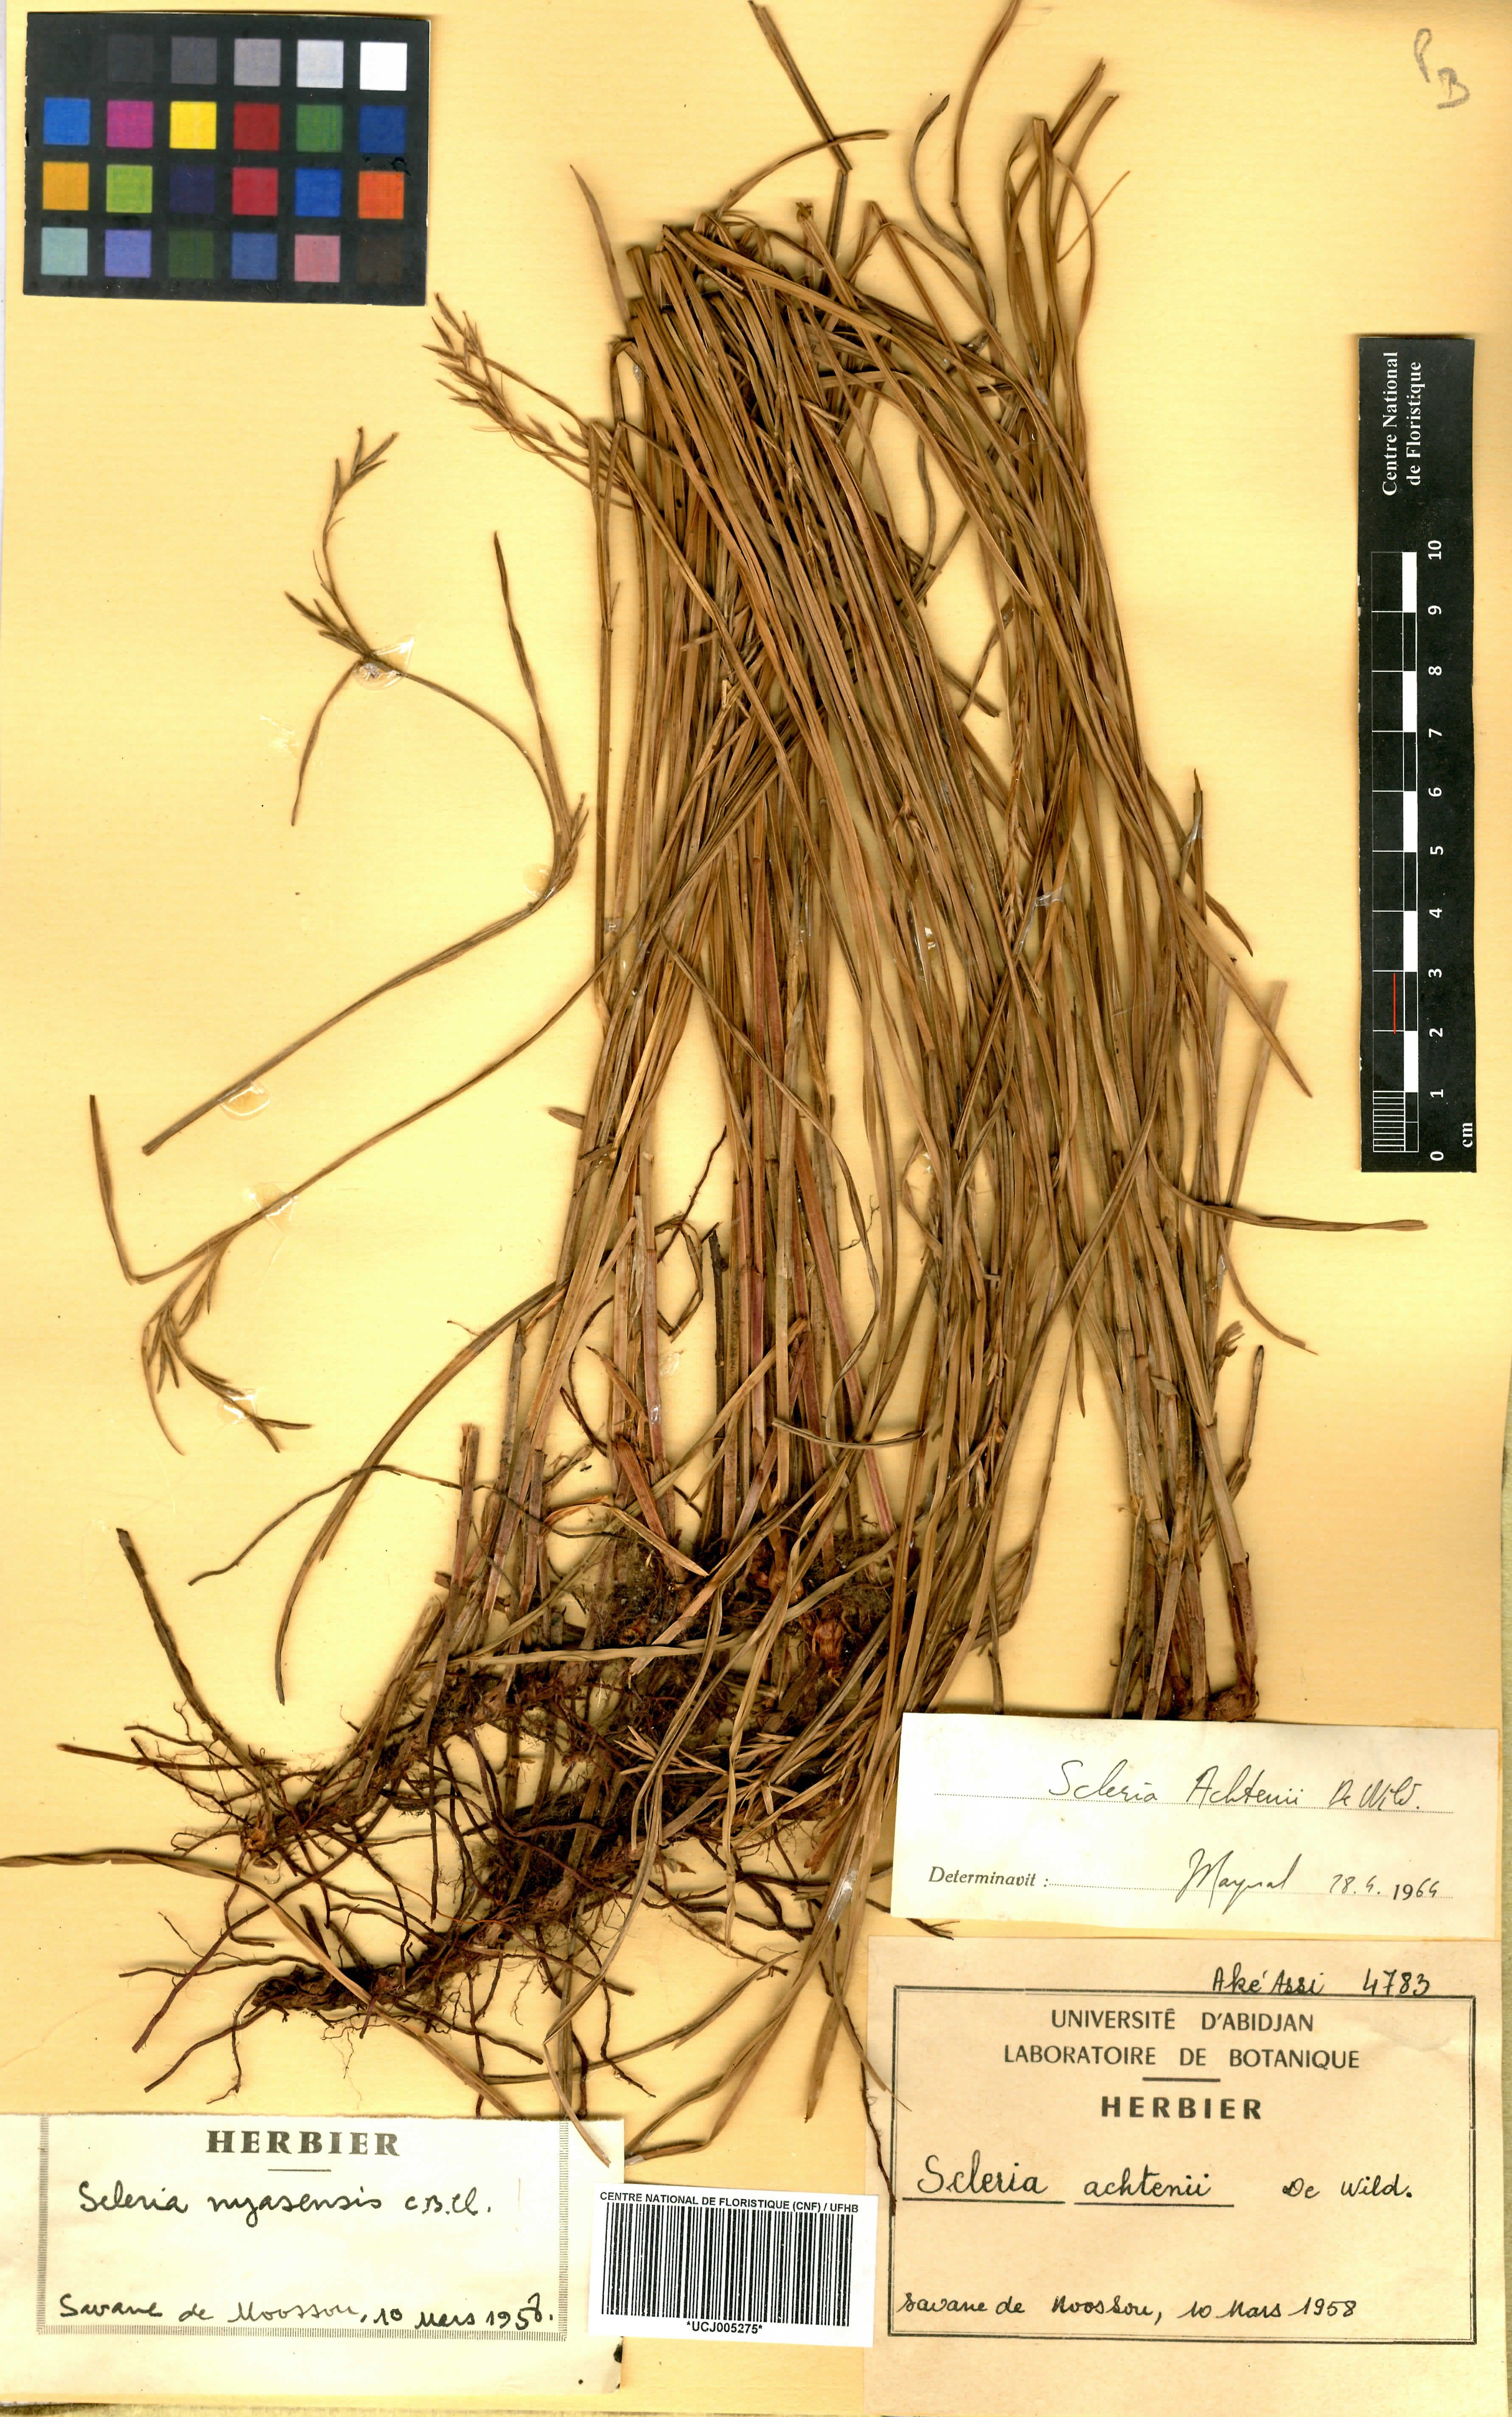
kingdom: Plantae
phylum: Tracheophyta
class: Liliopsida
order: Poales
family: Cyperaceae
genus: Scleria
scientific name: Scleria achtenii
